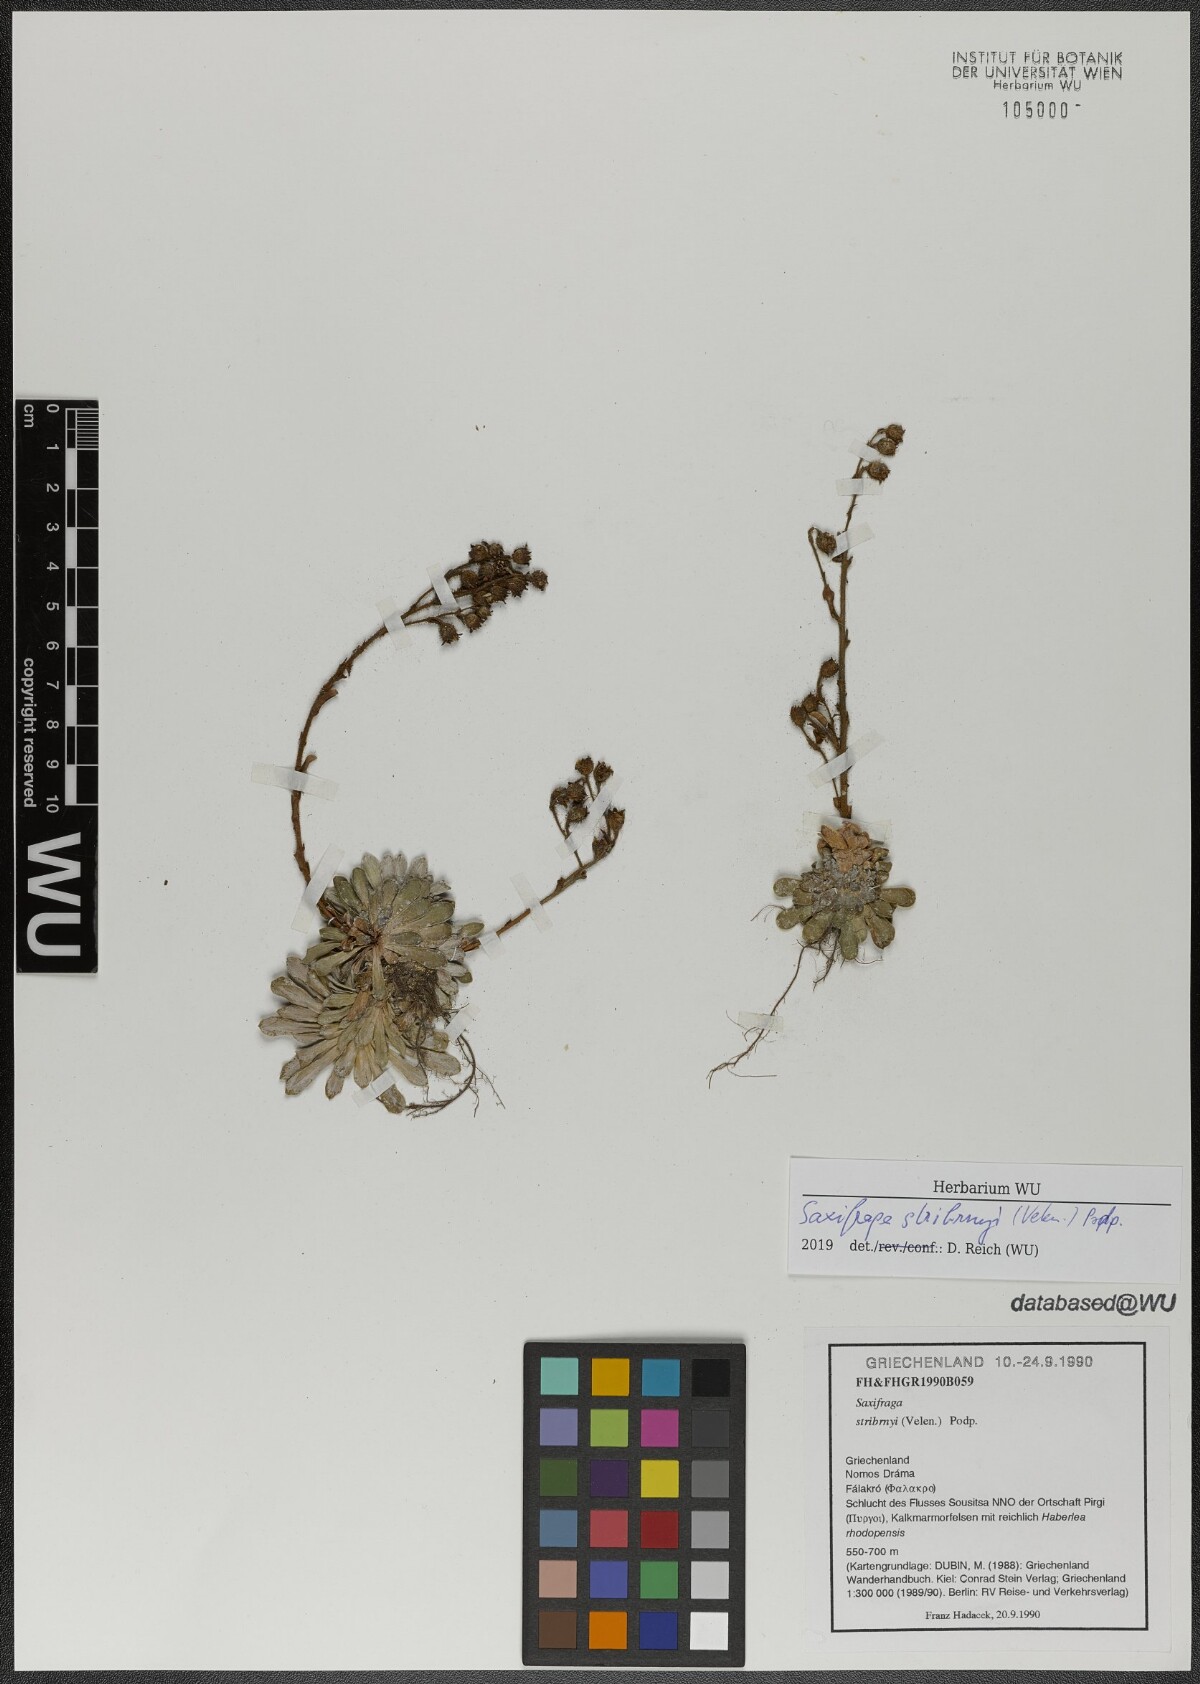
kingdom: Plantae
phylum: Tracheophyta
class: Magnoliopsida
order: Saxifragales
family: Saxifragaceae
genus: Saxifraga
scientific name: Saxifraga stribrnyi
